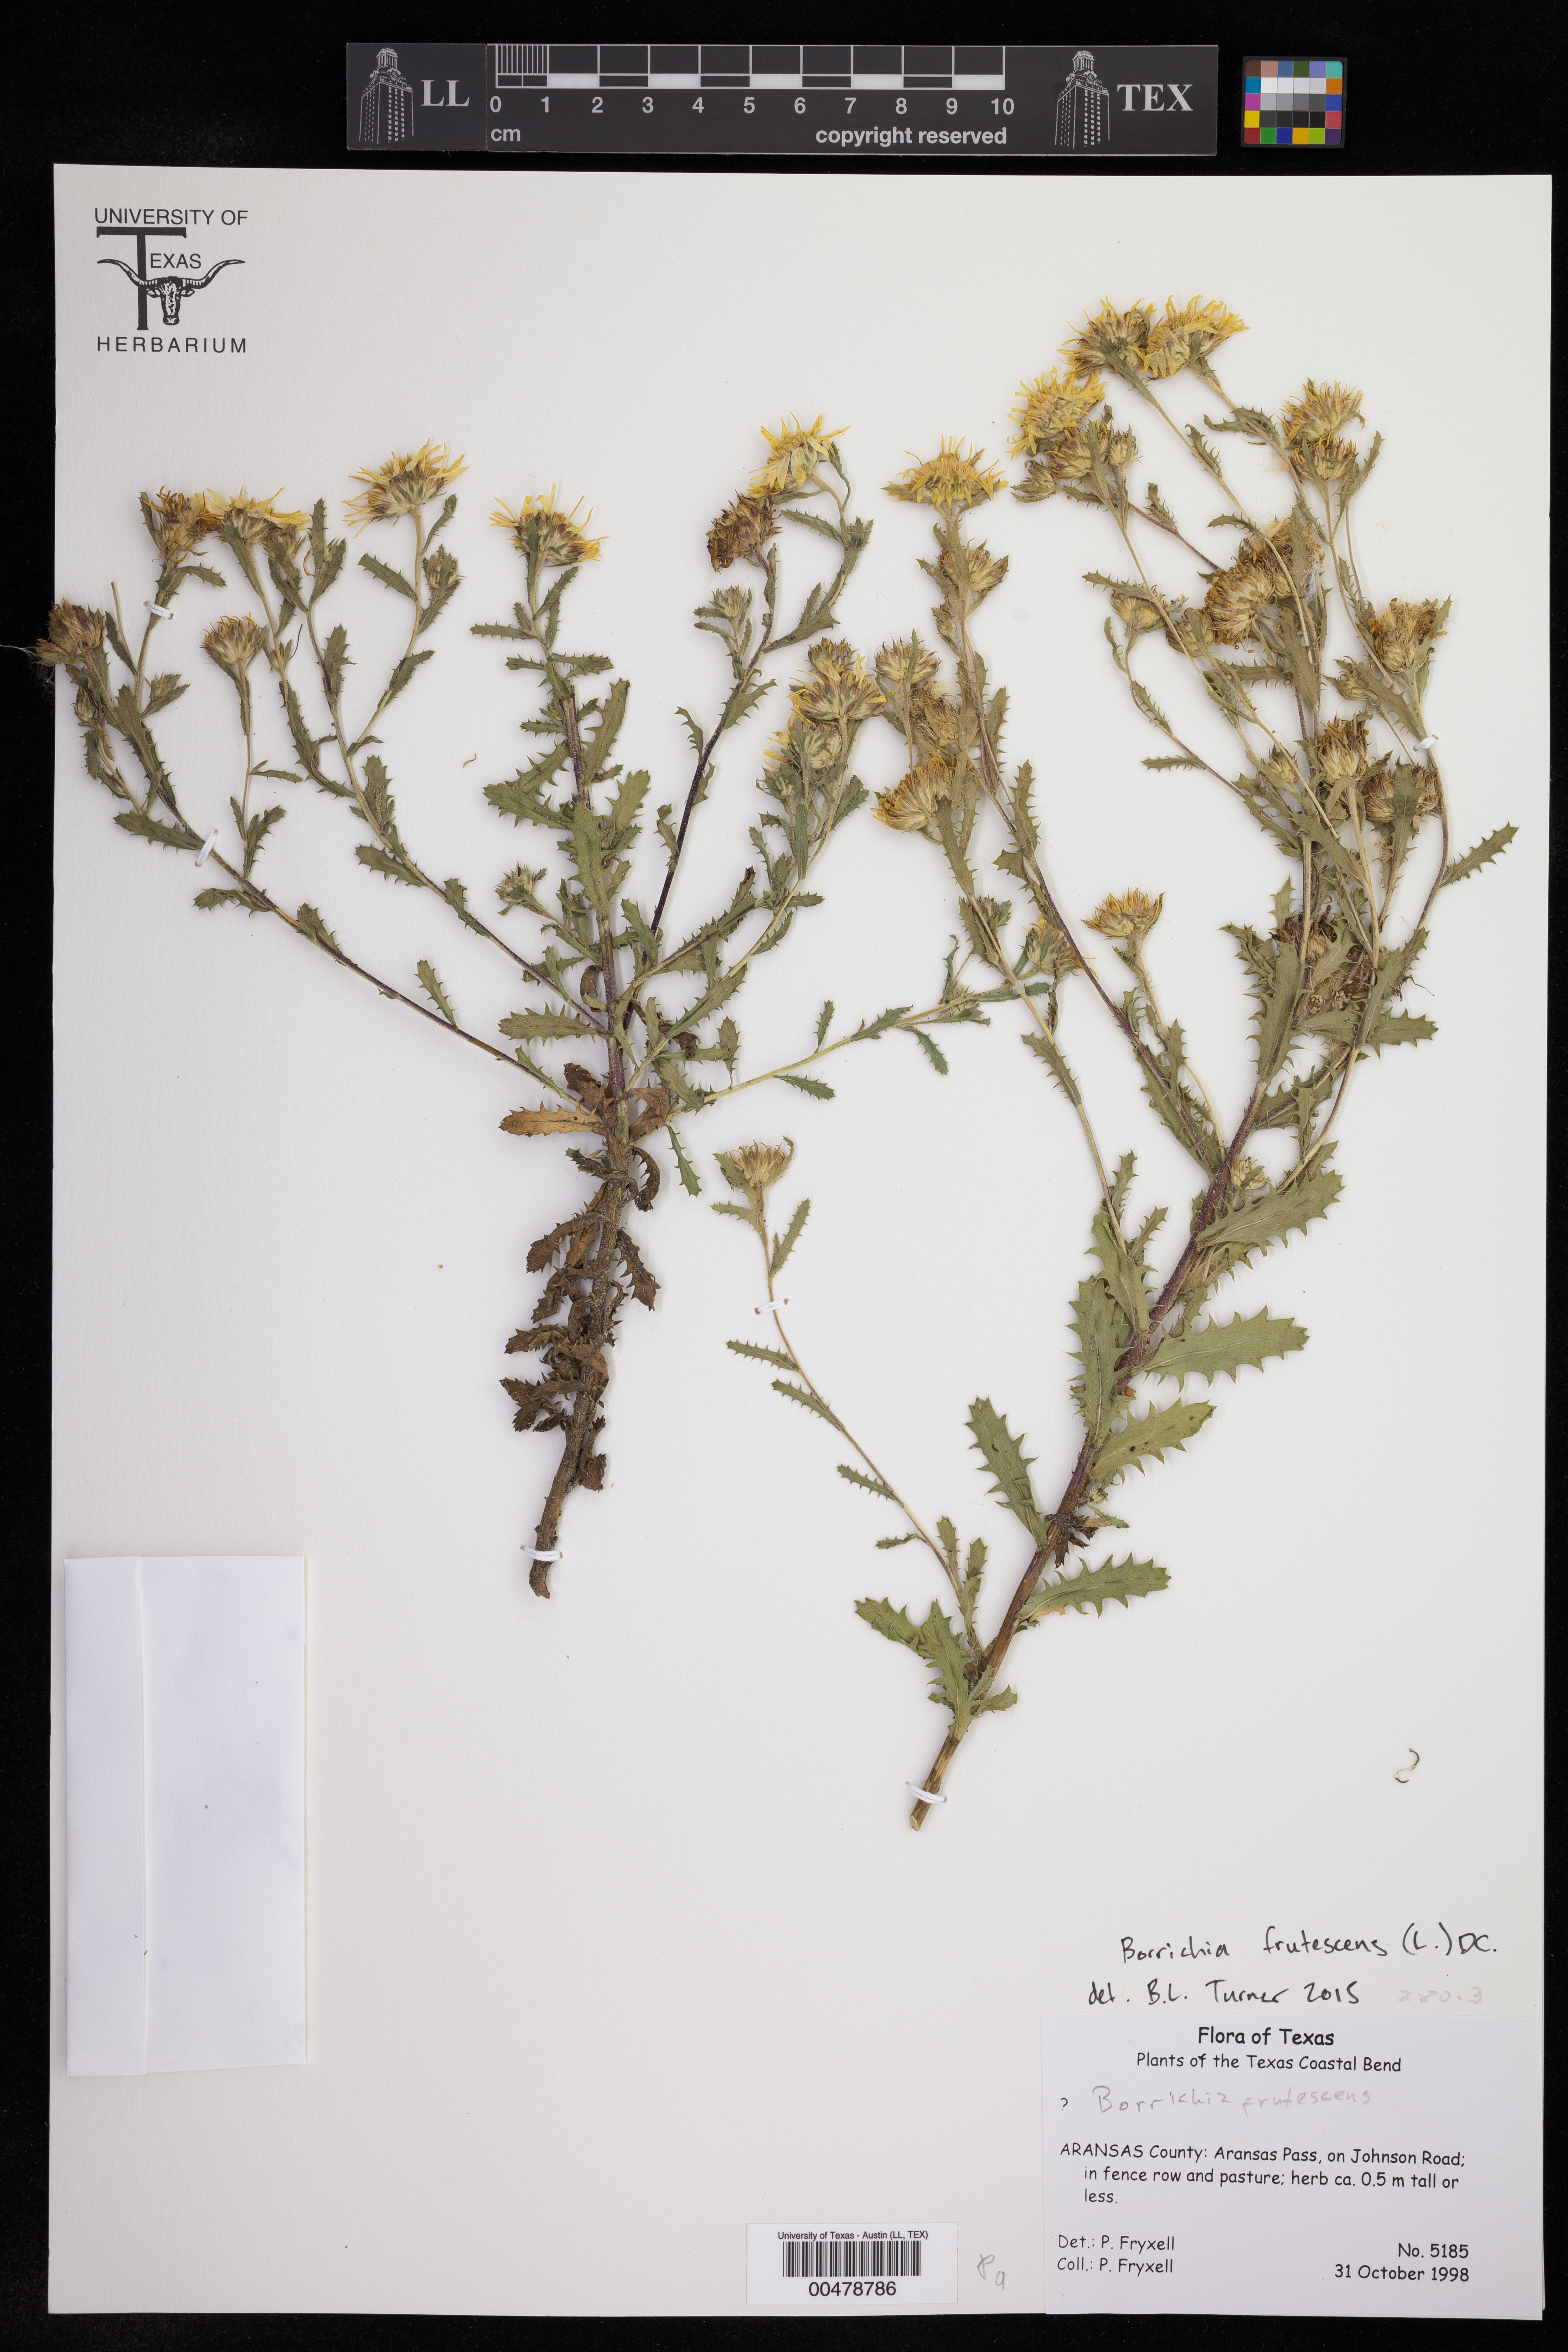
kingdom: Plantae
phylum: Tracheophyta
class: Magnoliopsida
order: Asterales
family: Asteraceae
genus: Borrichia
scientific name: Borrichia frutescens
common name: Sea oxeye
